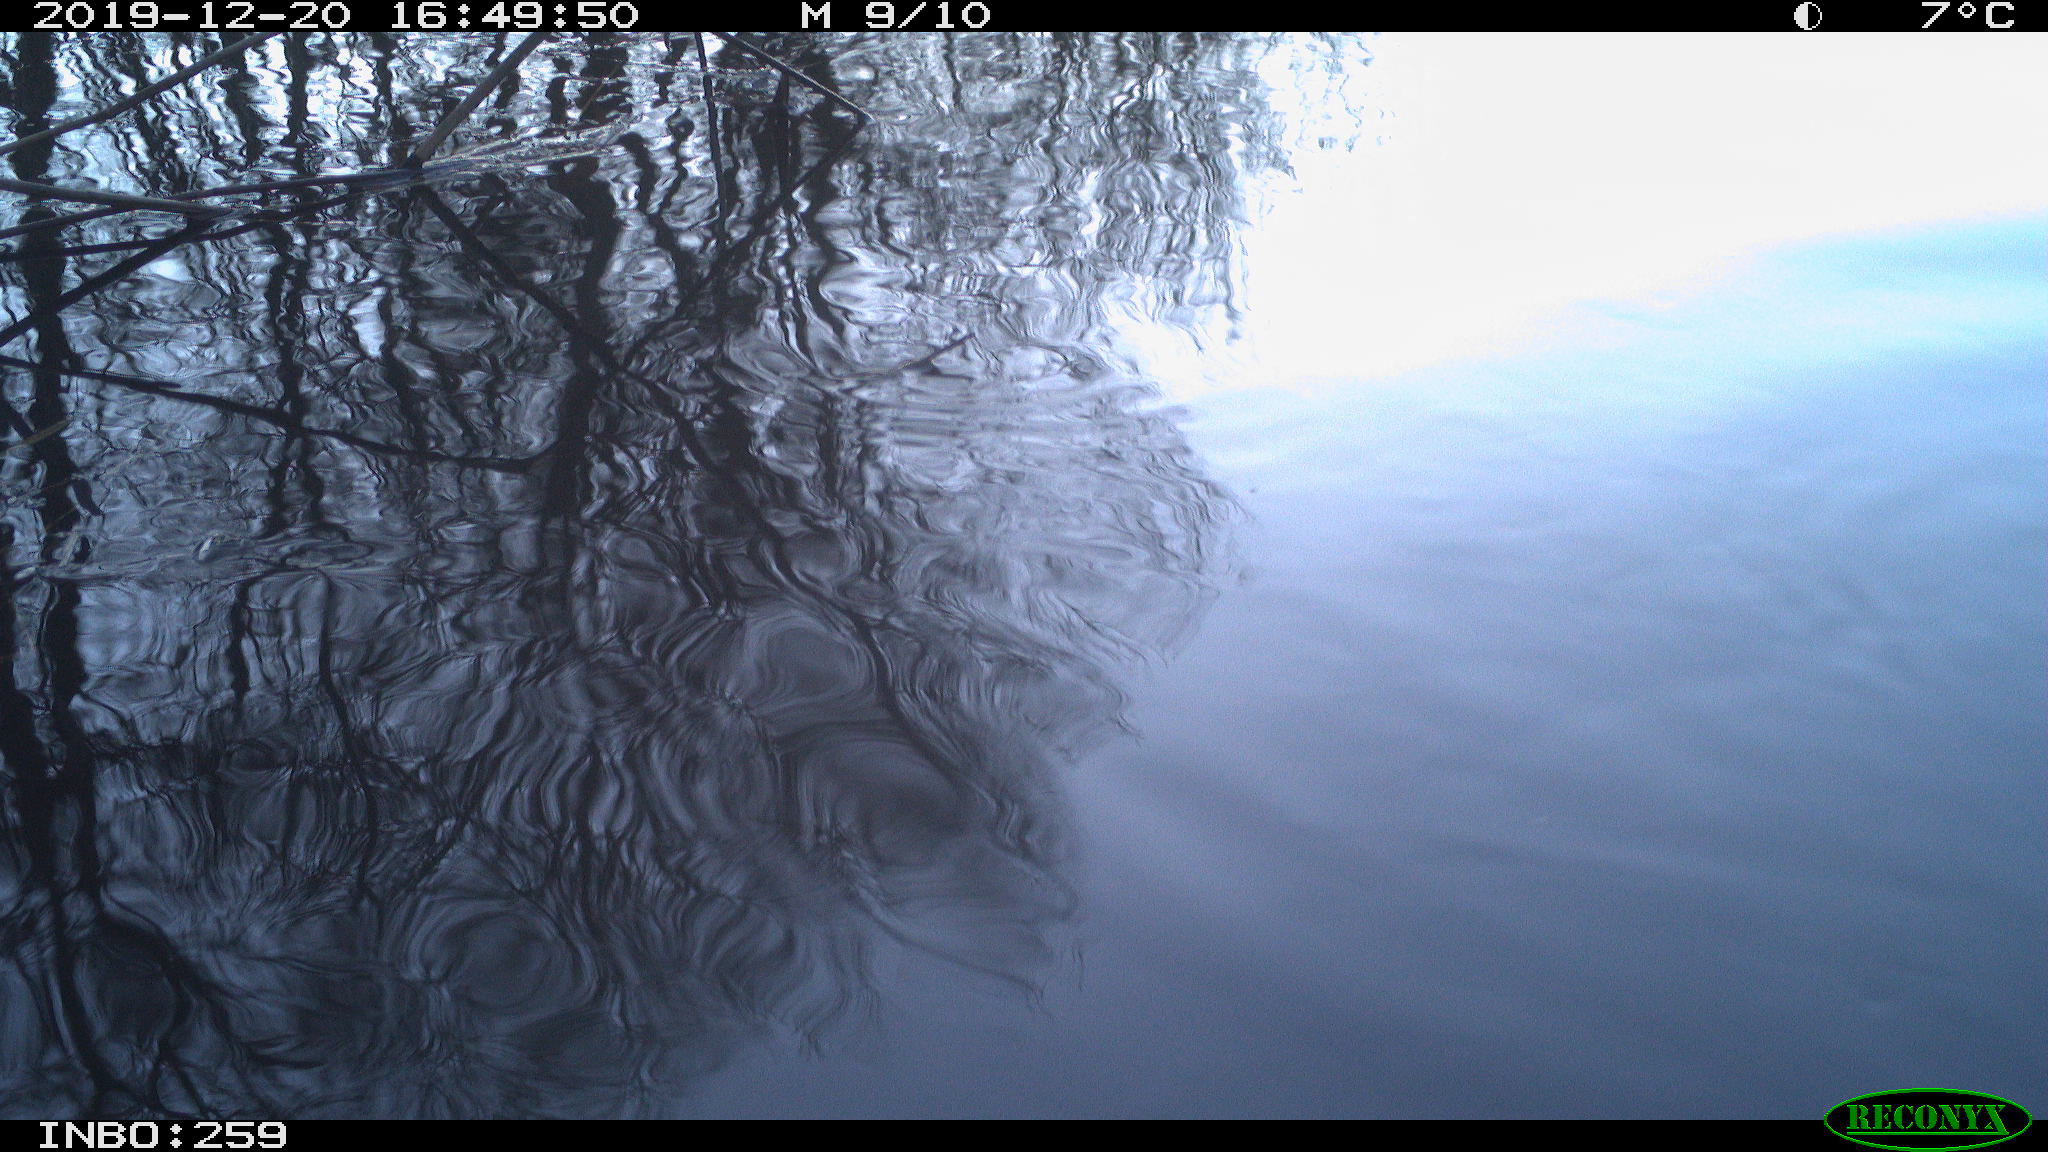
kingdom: Animalia
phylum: Chordata
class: Aves
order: Gruiformes
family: Rallidae
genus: Gallinula
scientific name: Gallinula chloropus
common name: Common moorhen
